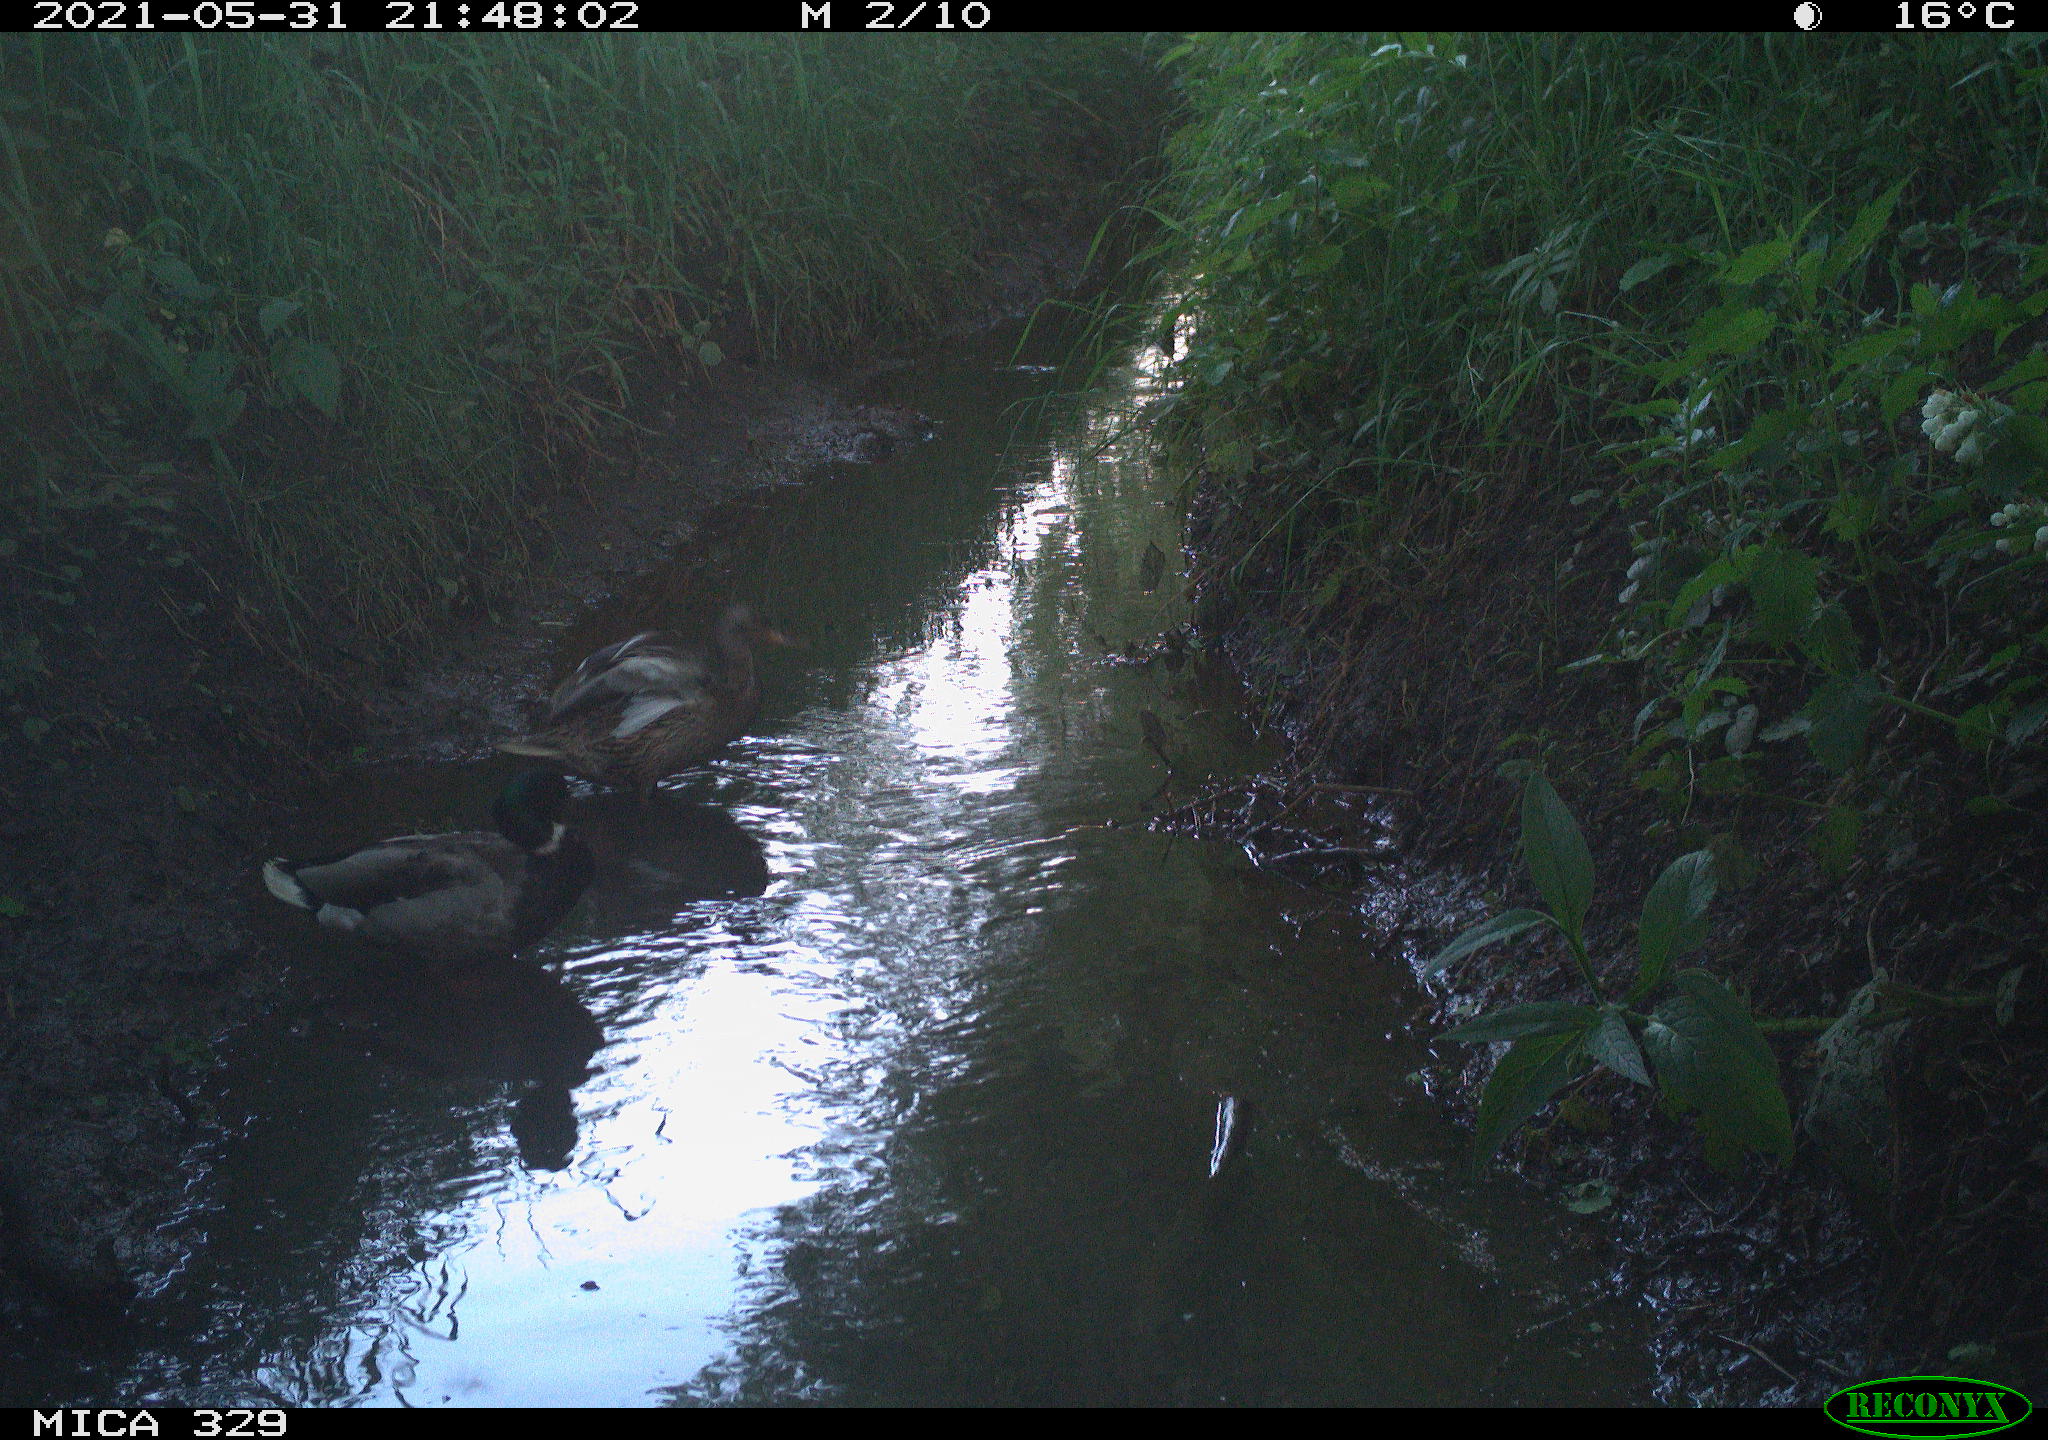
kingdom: Animalia
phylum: Chordata
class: Aves
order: Anseriformes
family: Anatidae
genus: Anas
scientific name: Anas platyrhynchos
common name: Mallard
